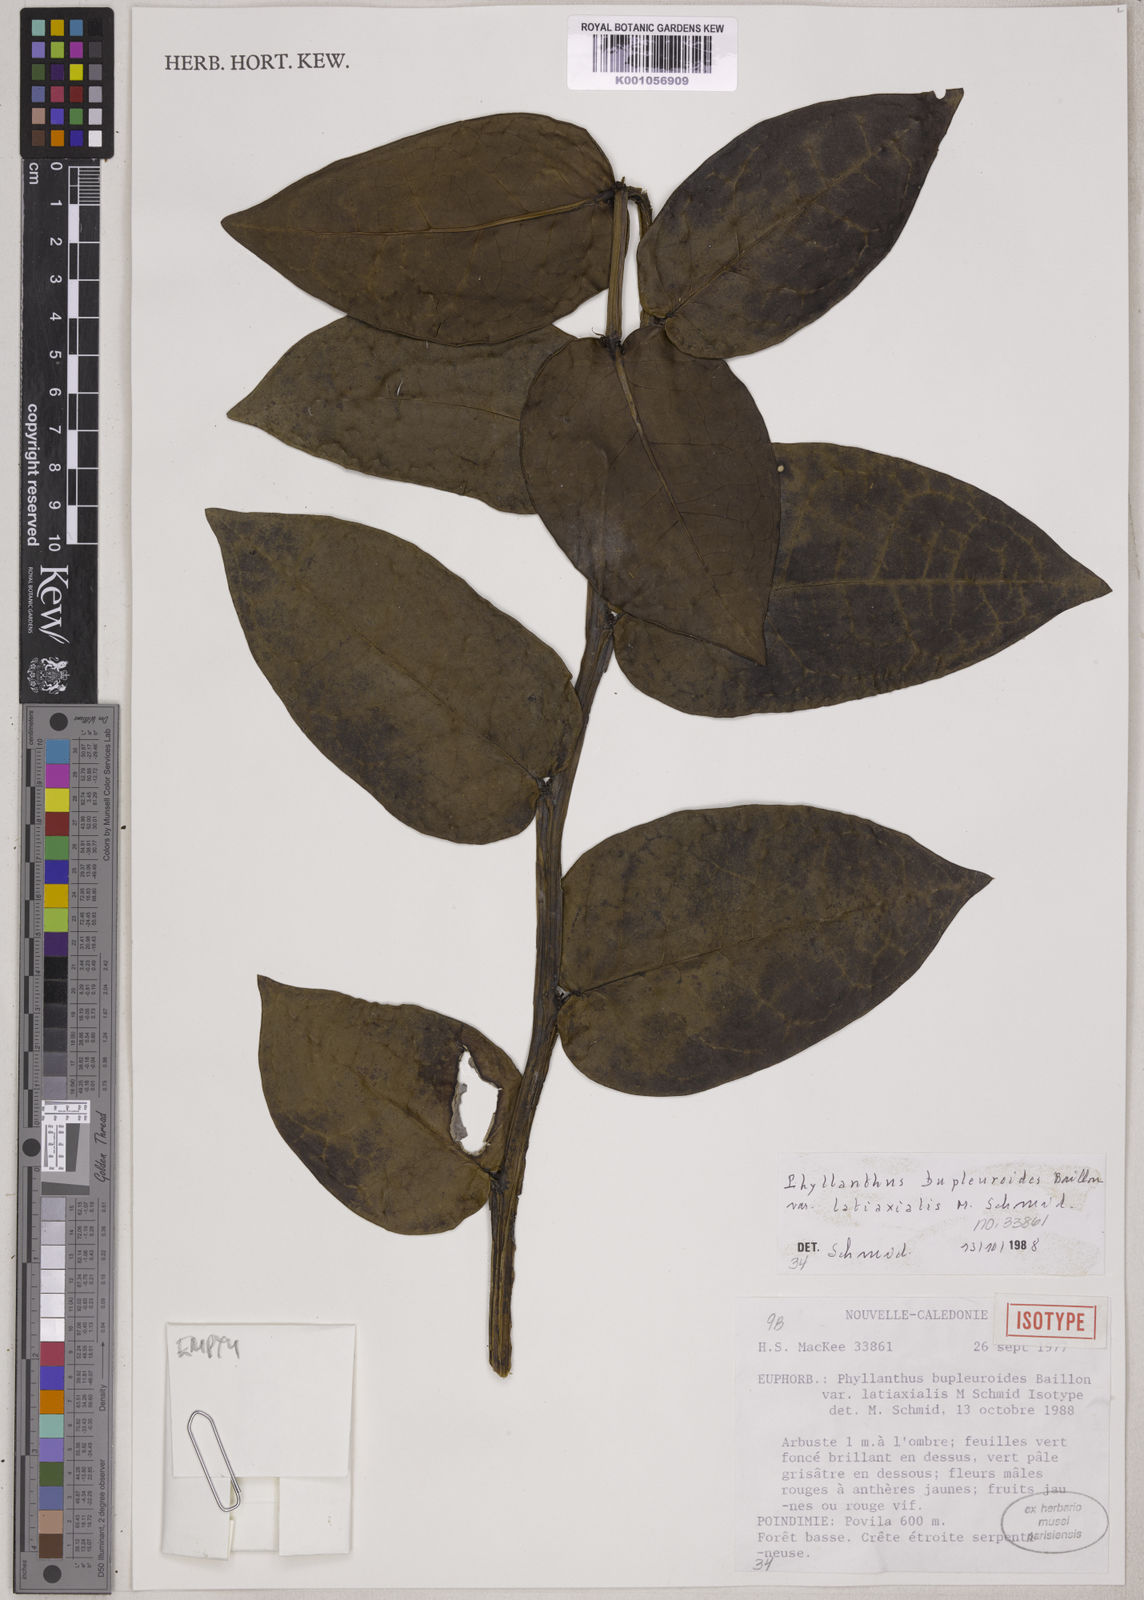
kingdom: Plantae
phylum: Tracheophyta
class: Magnoliopsida
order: Malpighiales
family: Phyllanthaceae
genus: Phyllanthus
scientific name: Phyllanthus bupleuroides
